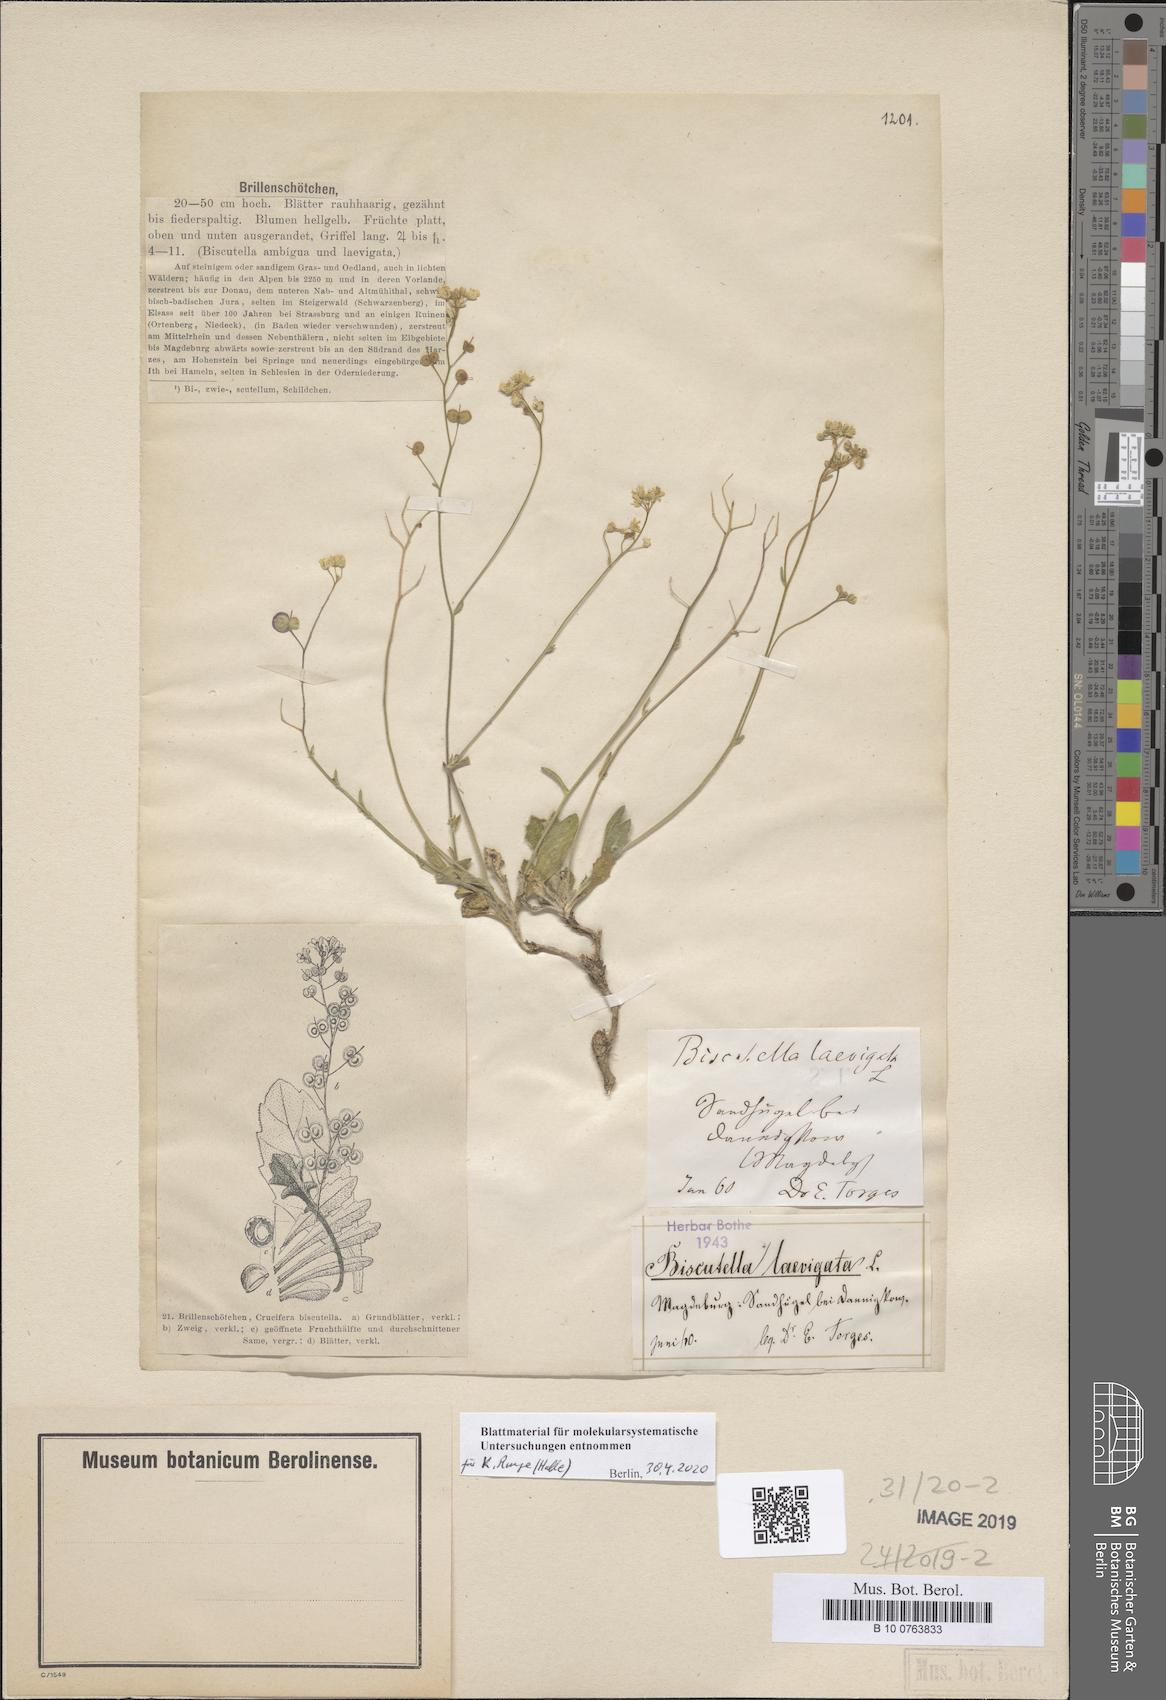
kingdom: Plantae
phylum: Tracheophyta
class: Magnoliopsida
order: Brassicales
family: Brassicaceae
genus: Biscutella
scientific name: Biscutella laevigata
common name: Buckler mustard
